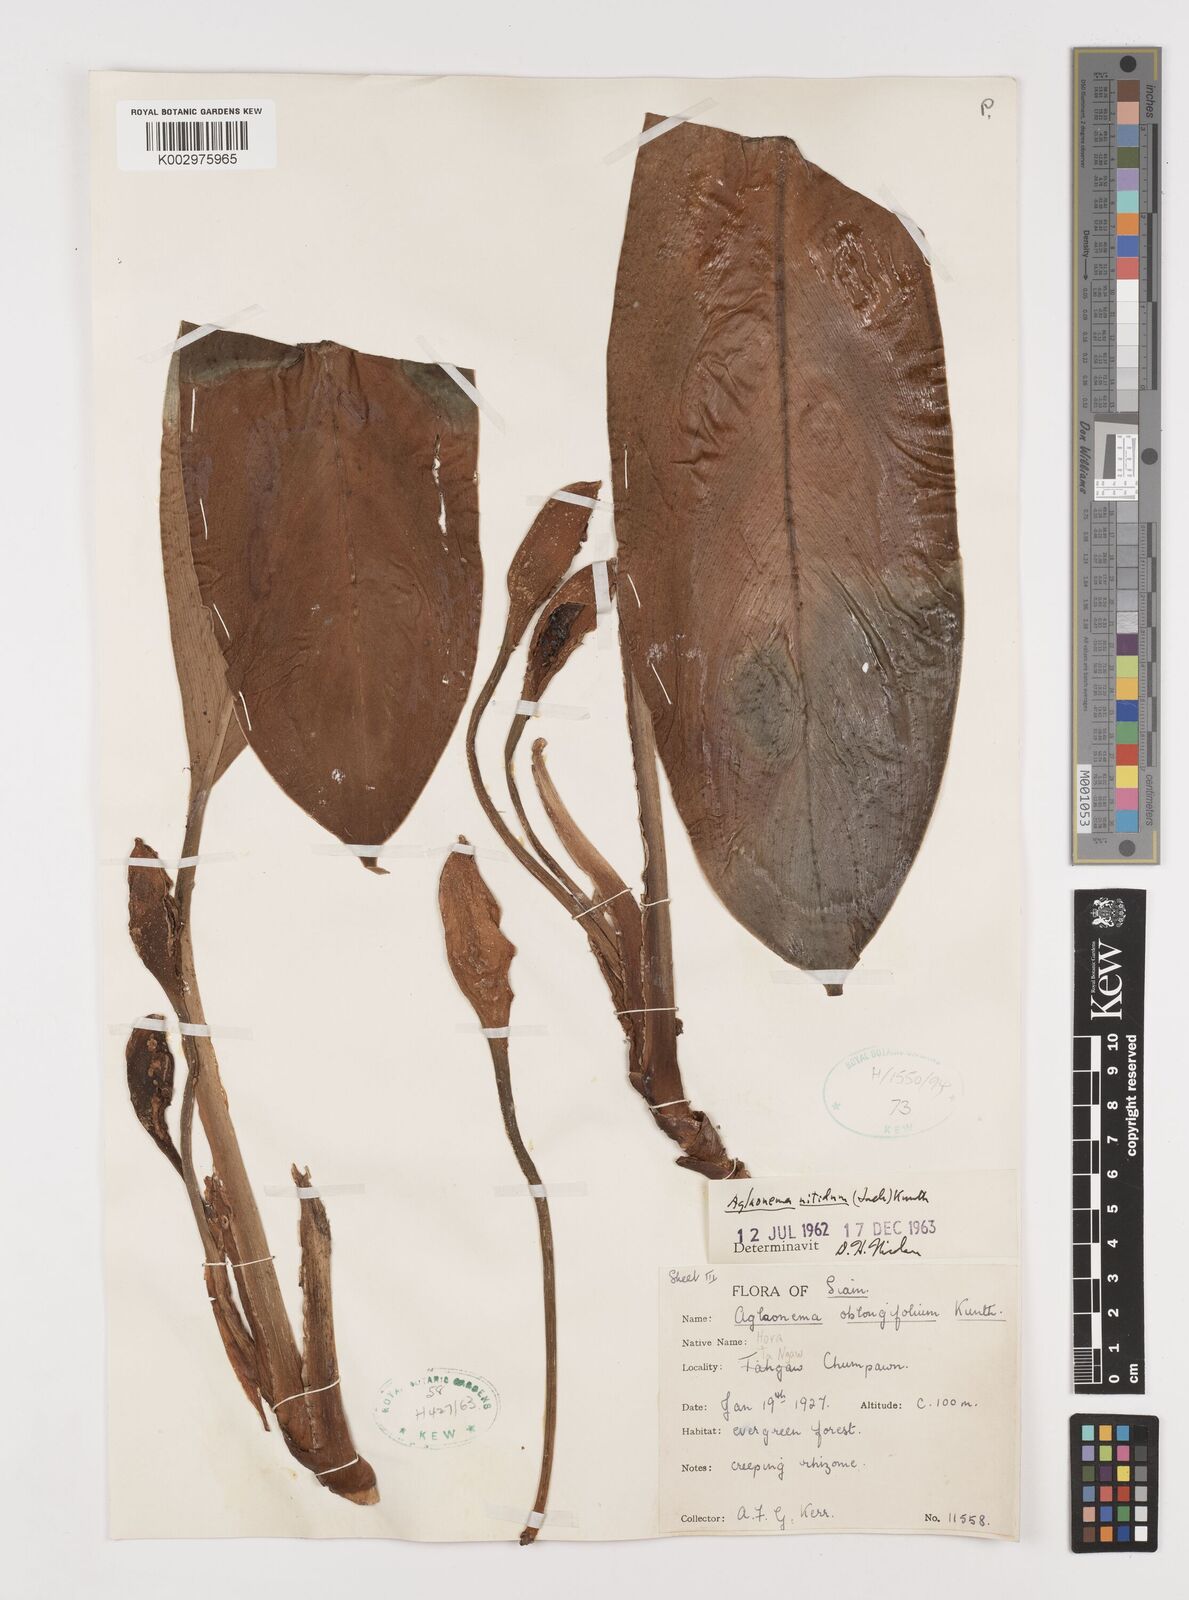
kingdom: Plantae
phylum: Tracheophyta
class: Liliopsida
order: Alismatales
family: Araceae
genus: Aglaonema
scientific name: Aglaonema nitidum
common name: Aglaonema aroid
